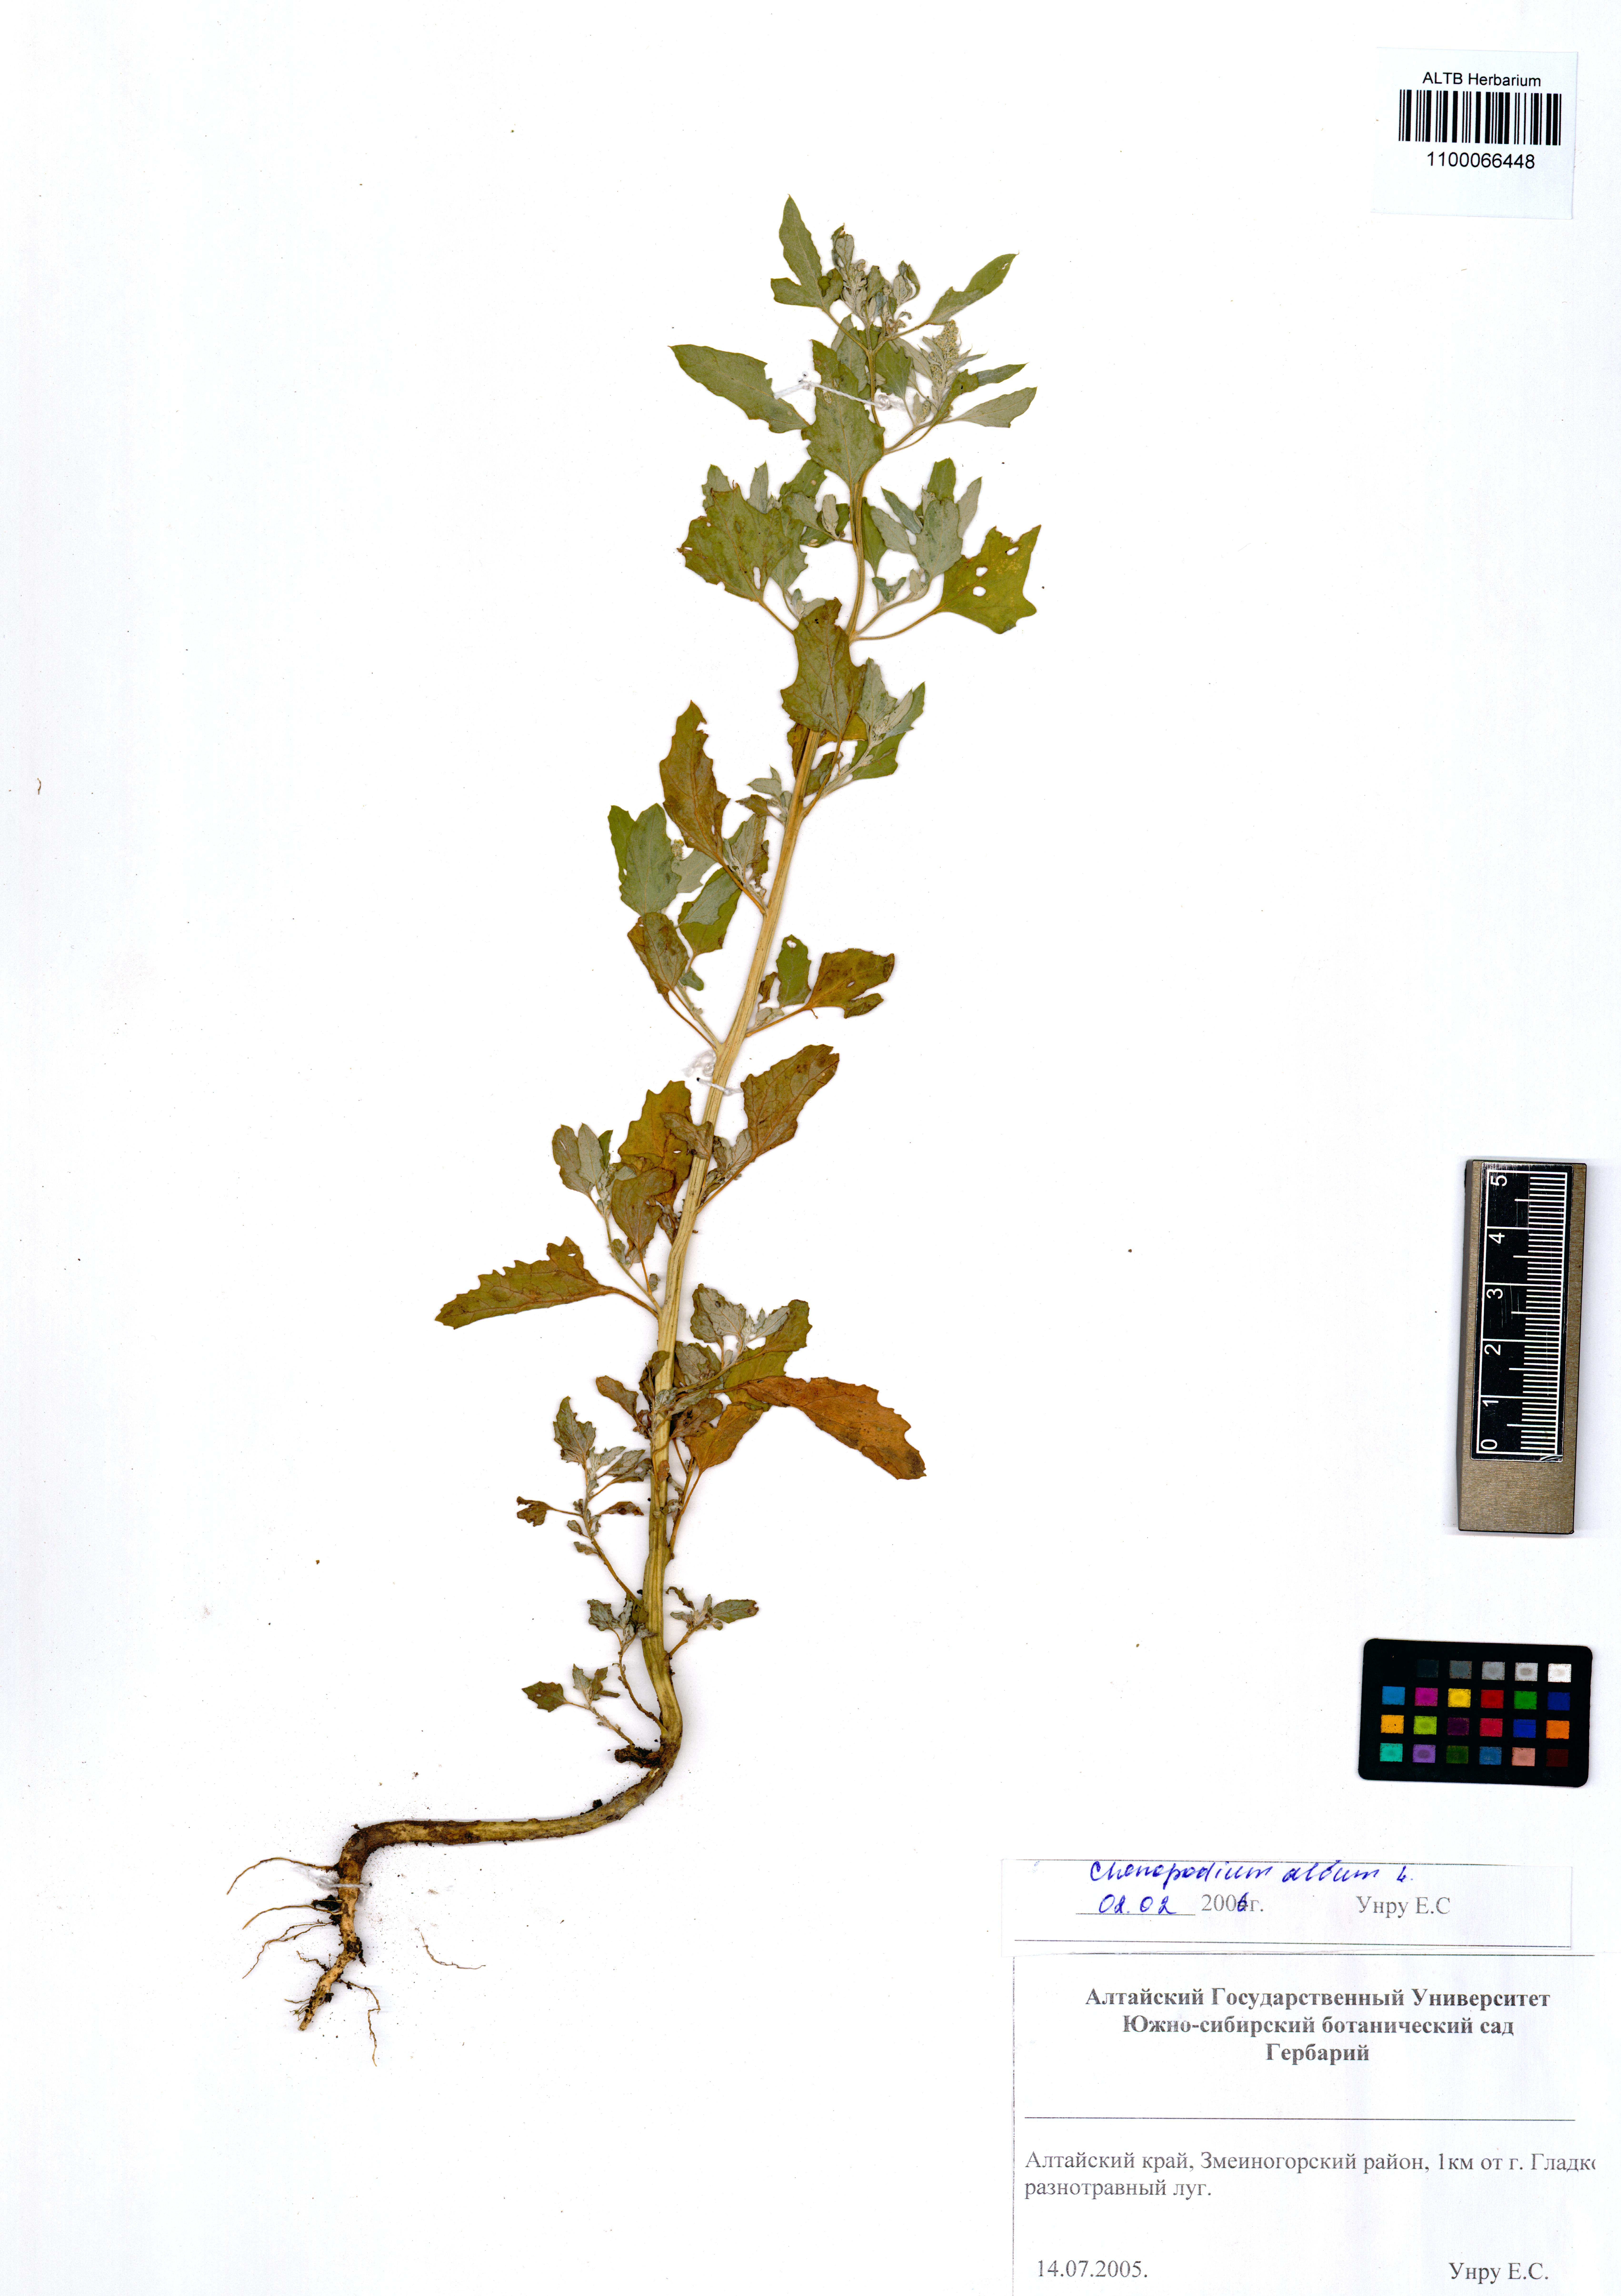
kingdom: Plantae
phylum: Tracheophyta
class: Magnoliopsida
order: Caryophyllales
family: Amaranthaceae
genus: Chenopodium
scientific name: Chenopodium album
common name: Fat-hen
